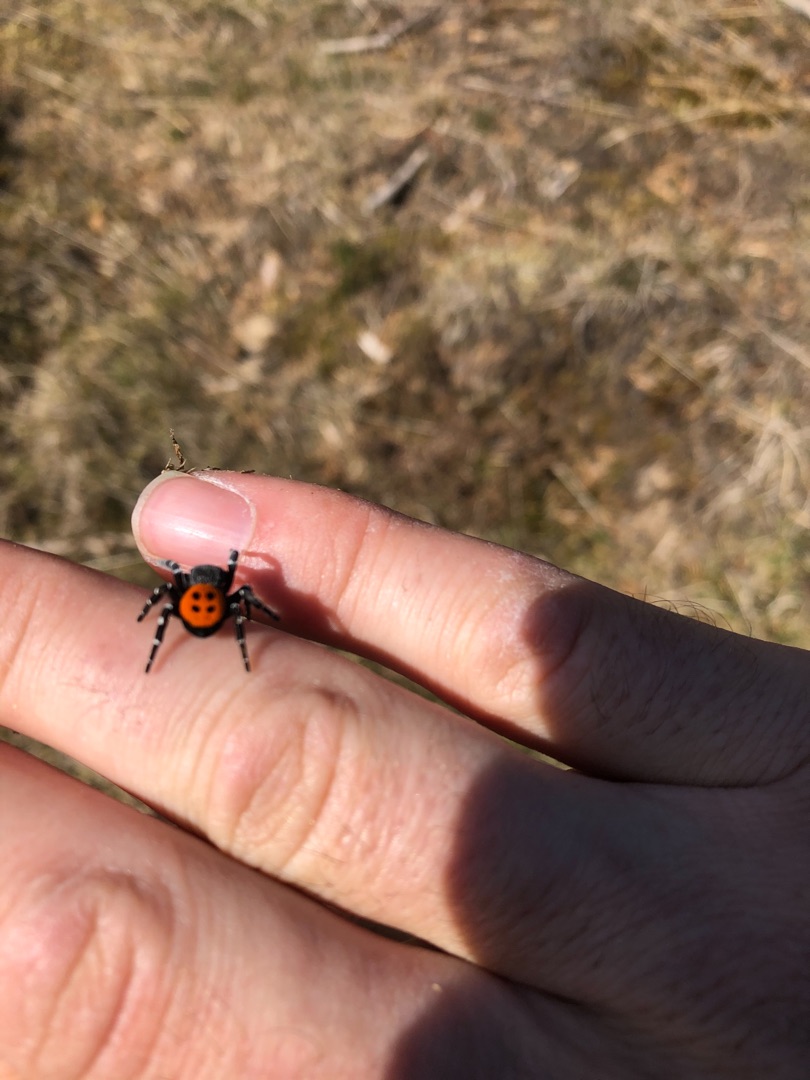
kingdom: Animalia
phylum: Arthropoda
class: Arachnida
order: Araneae
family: Eresidae
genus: Eresus
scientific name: Eresus sandaliatus
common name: Mariehøneedderkop
